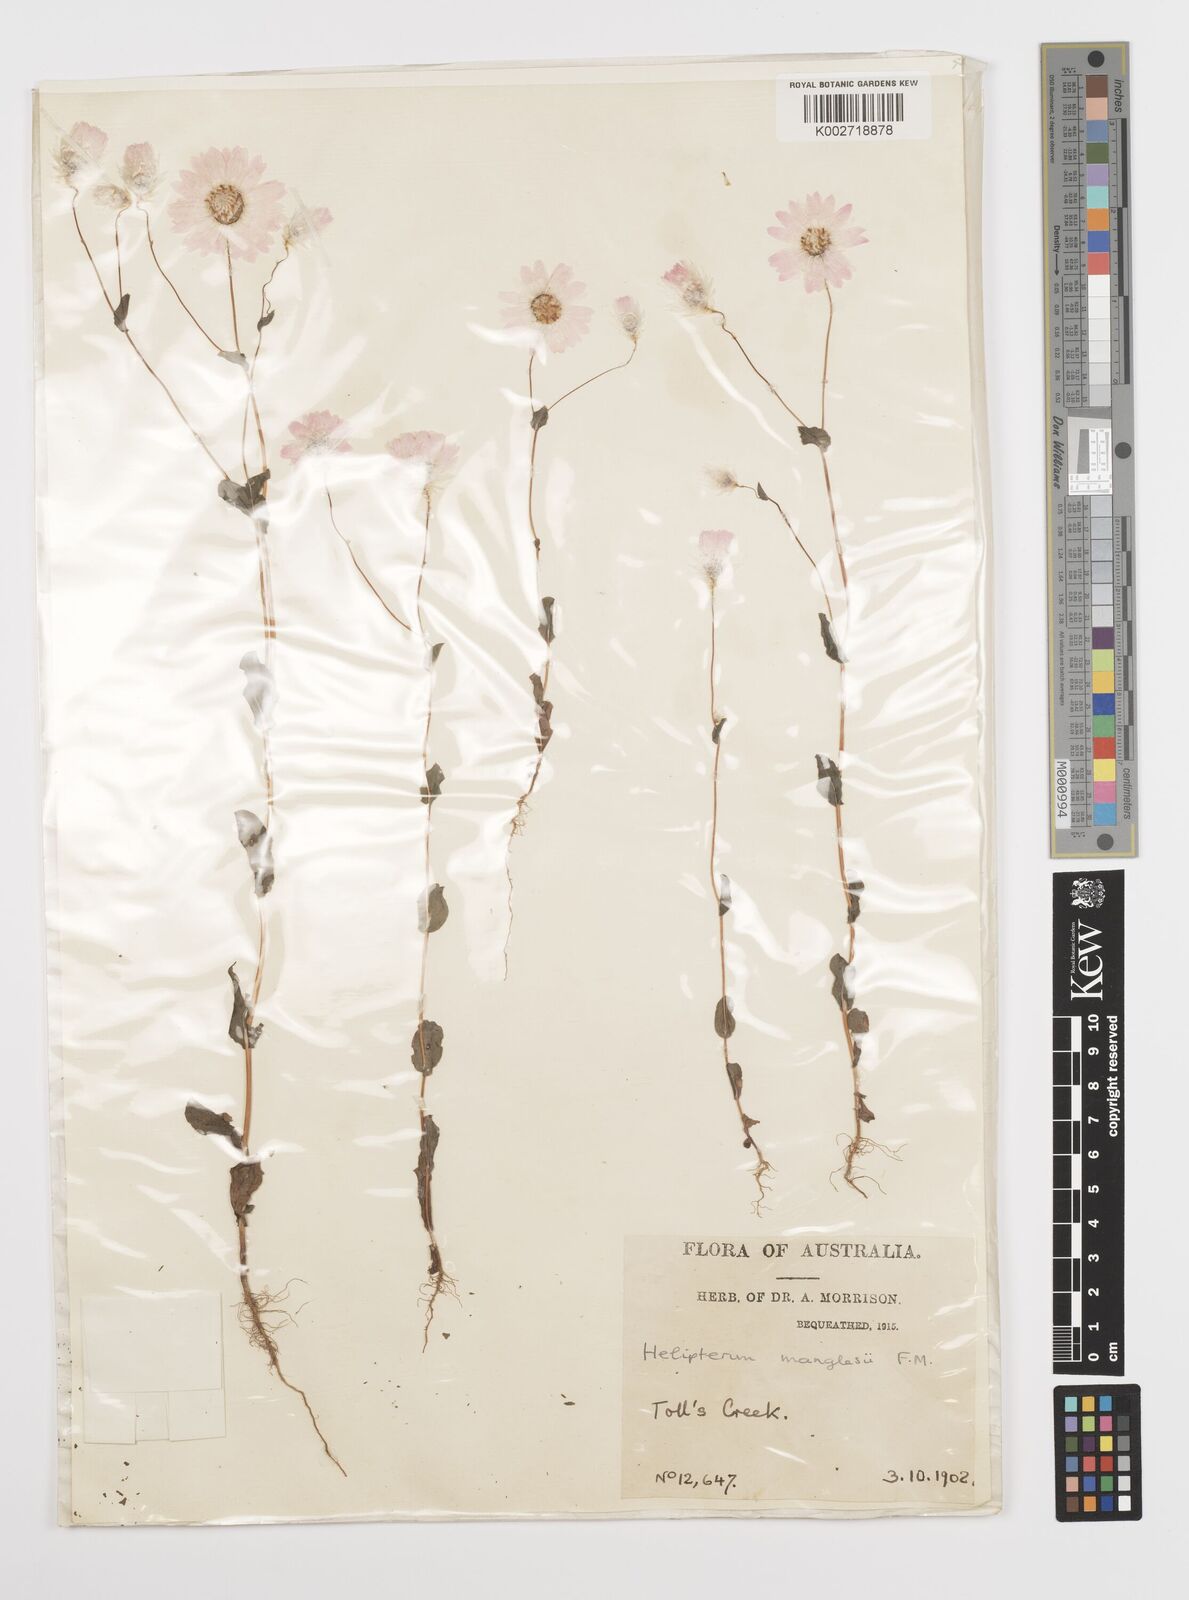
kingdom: Plantae
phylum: Tracheophyta
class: Magnoliopsida
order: Asterales
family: Asteraceae
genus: Rhodanthe
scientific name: Rhodanthe manglesii
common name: Pink sunray
